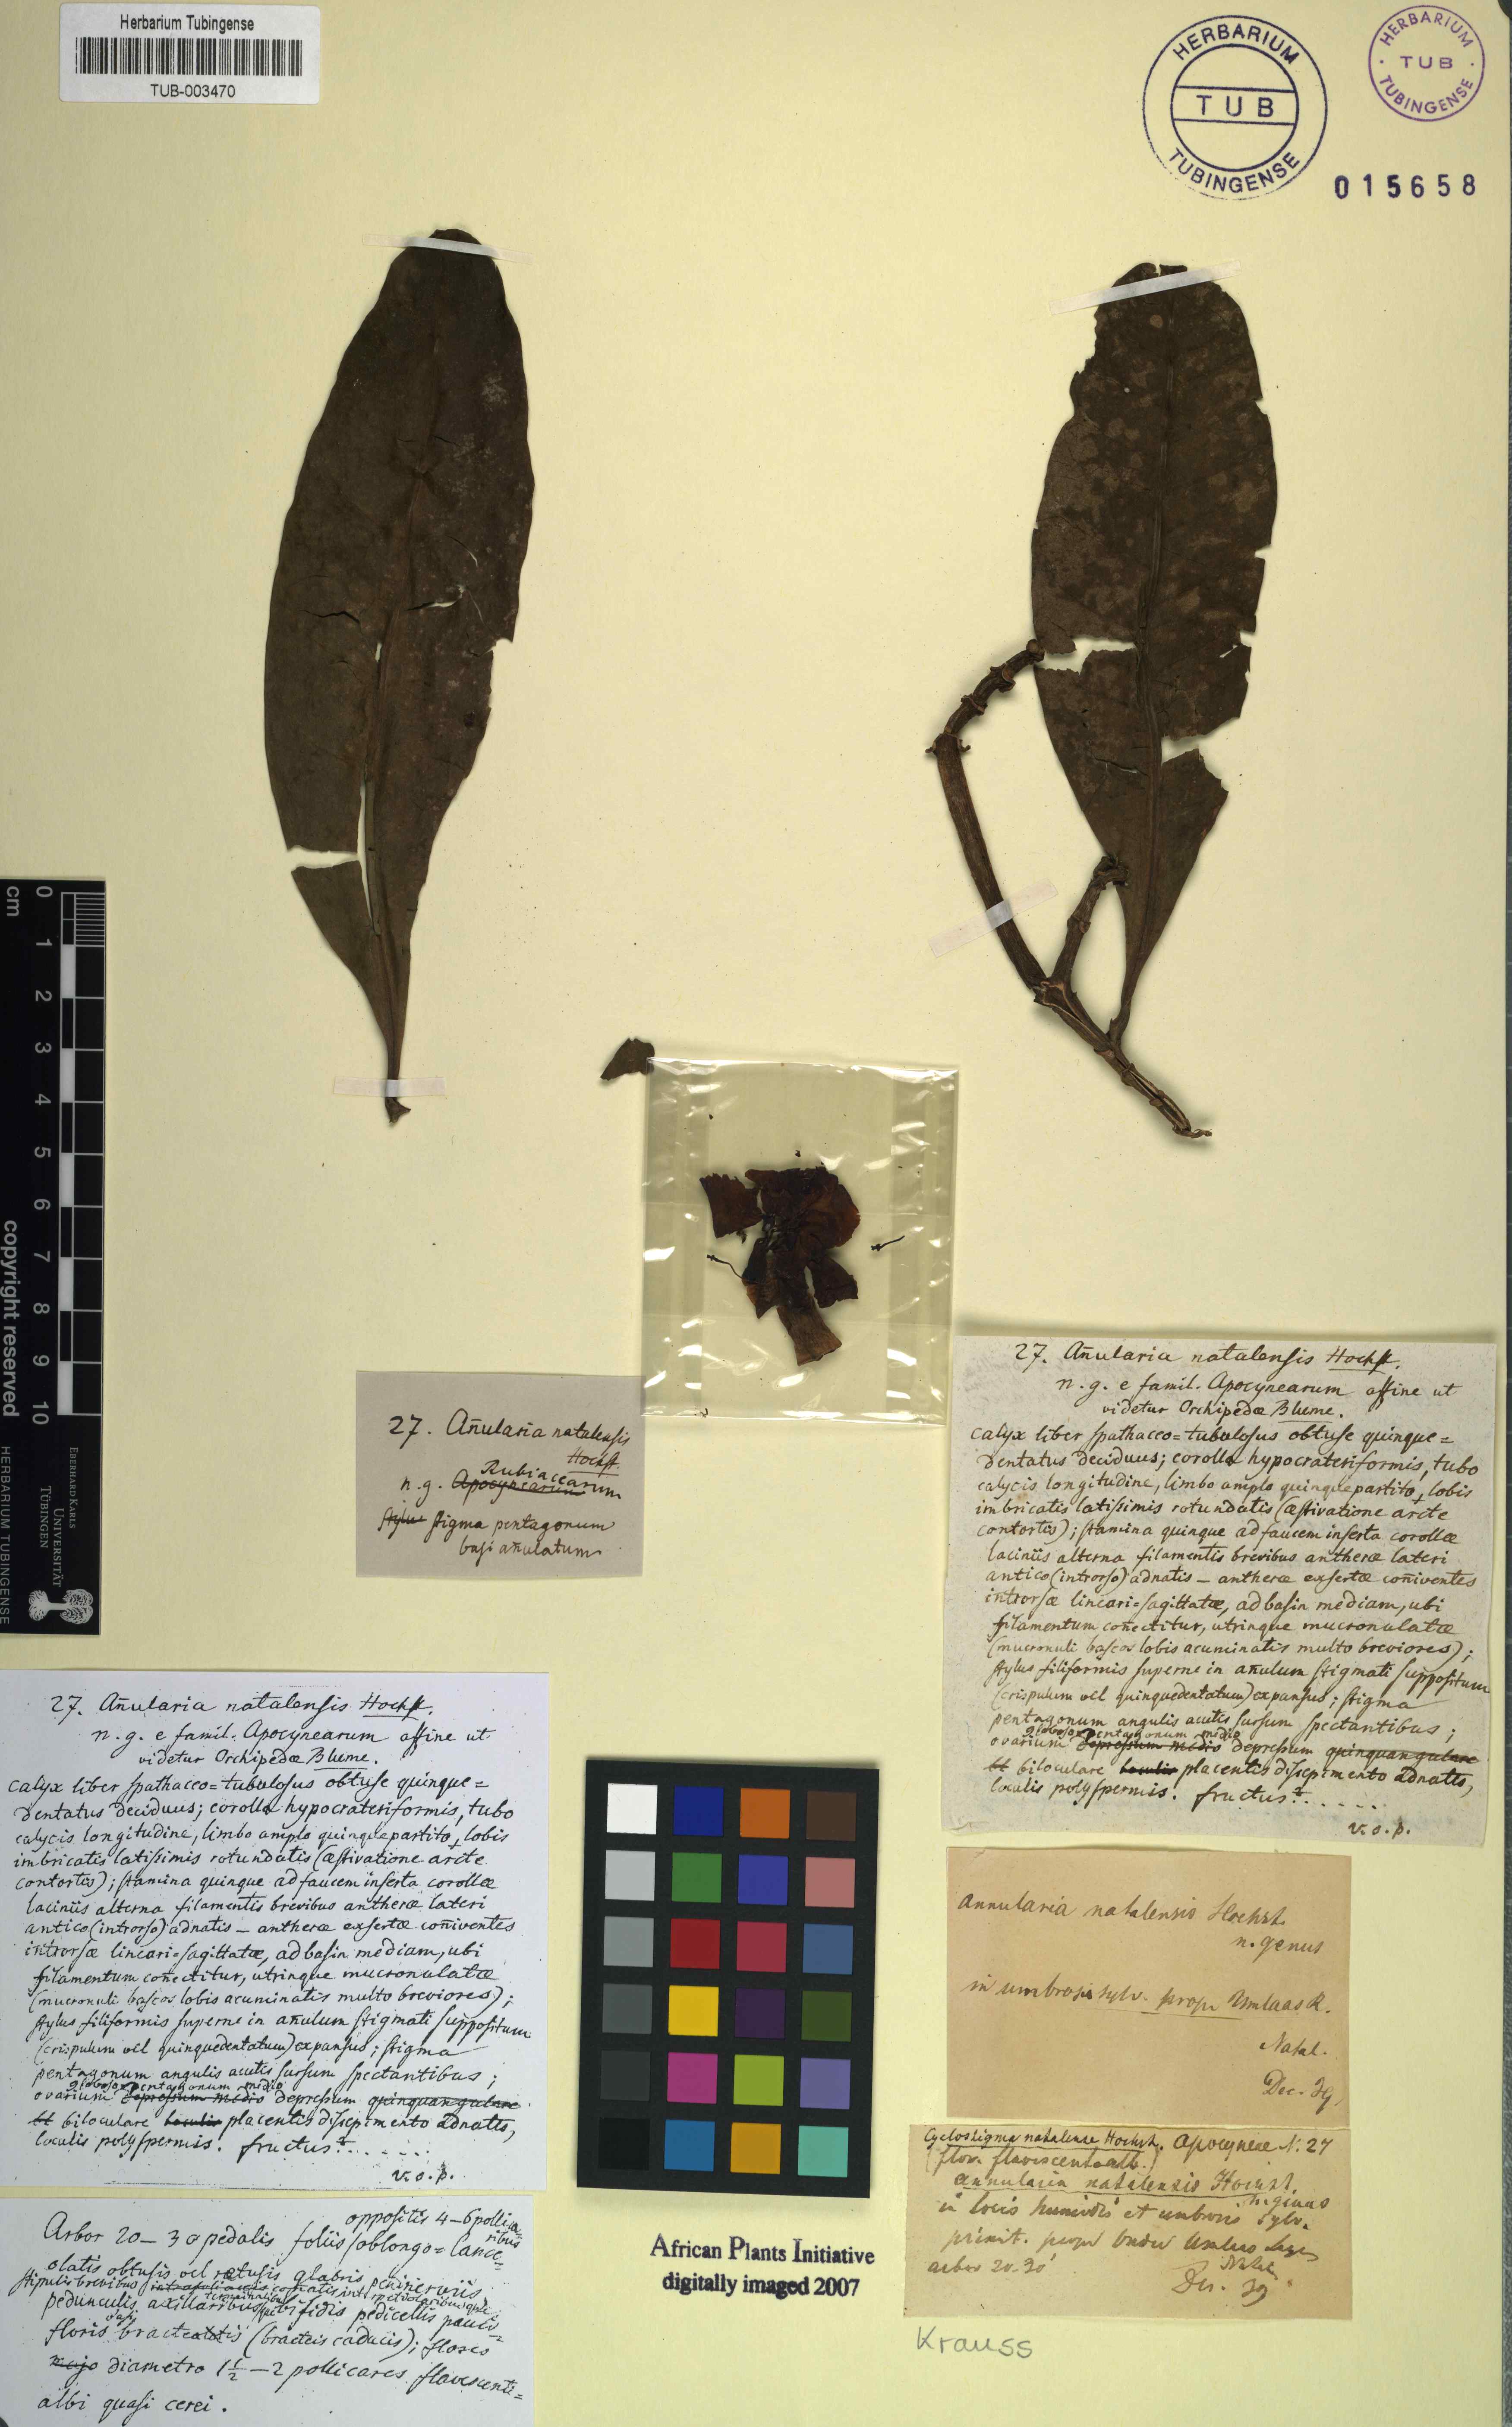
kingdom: Plantae
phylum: Tracheophyta
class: Magnoliopsida
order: Gentianales
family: Apocynaceae
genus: Voacanga
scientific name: Voacanga thouarsii
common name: Wild frangipani
